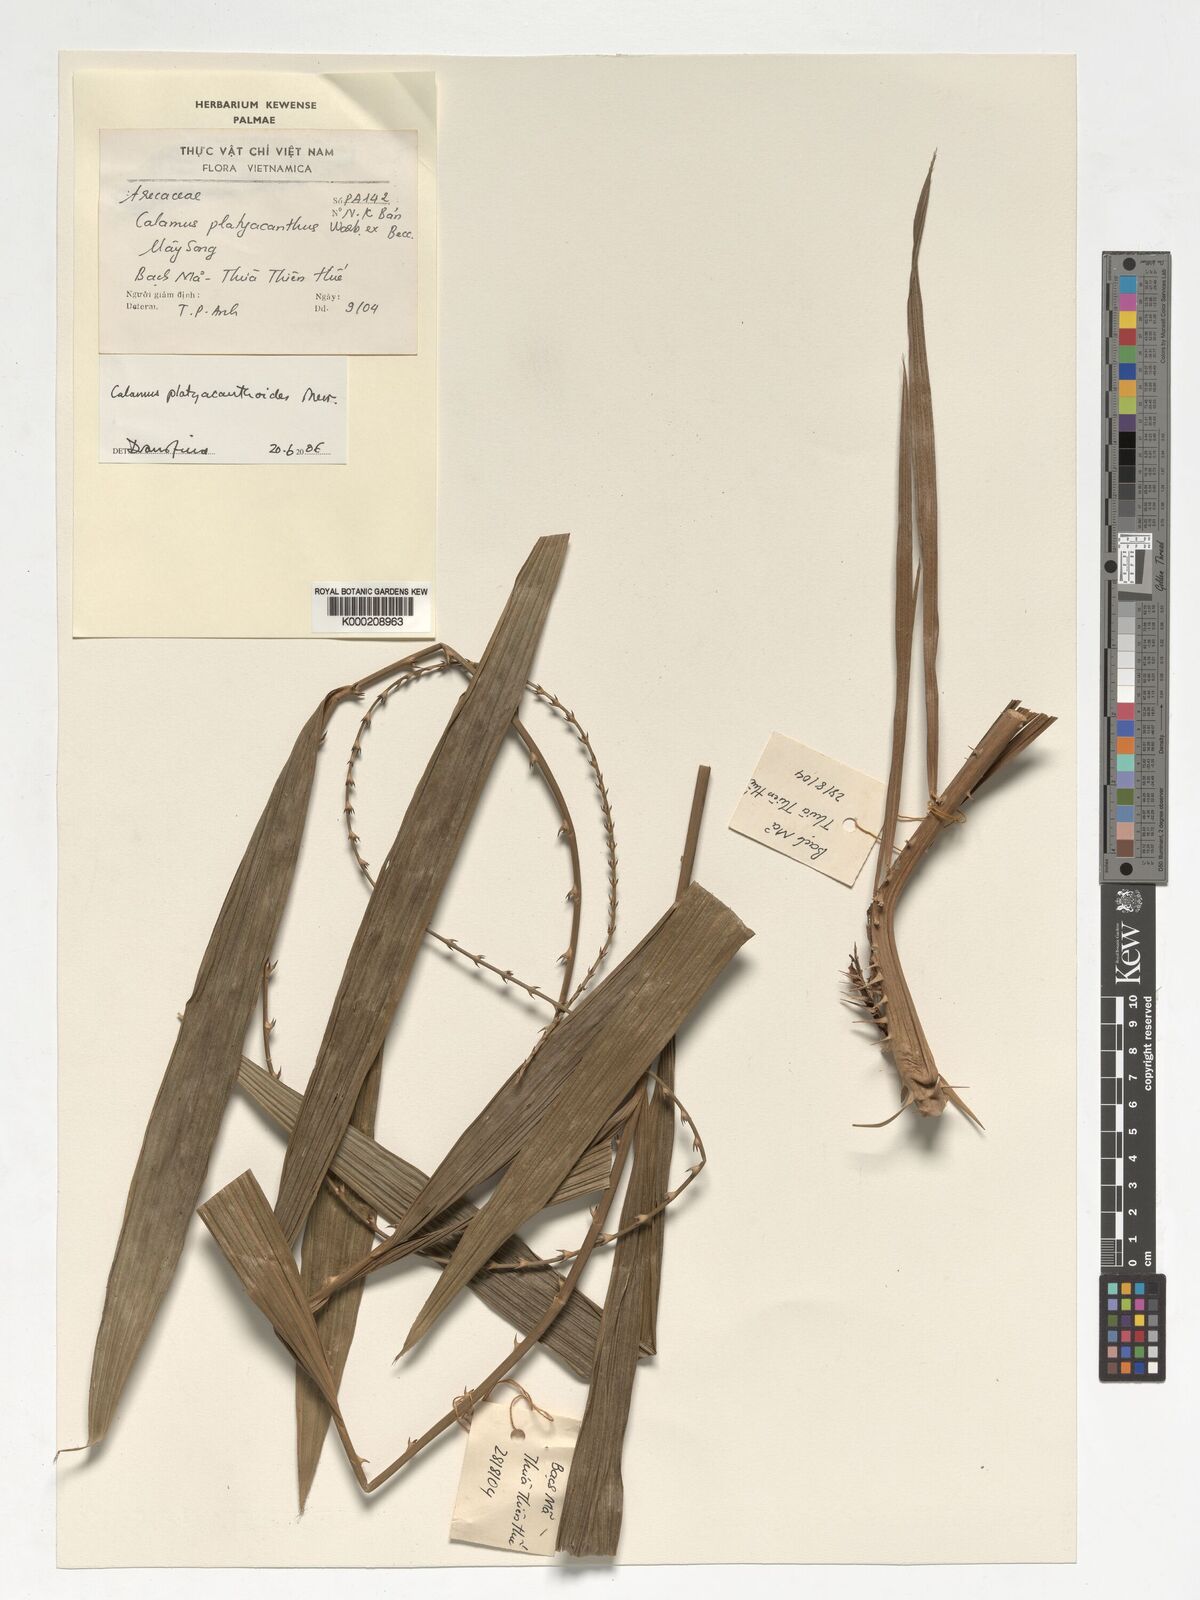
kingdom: Plantae
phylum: Tracheophyta
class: Liliopsida
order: Arecales
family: Arecaceae
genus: Calamus
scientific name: Calamus inermis
